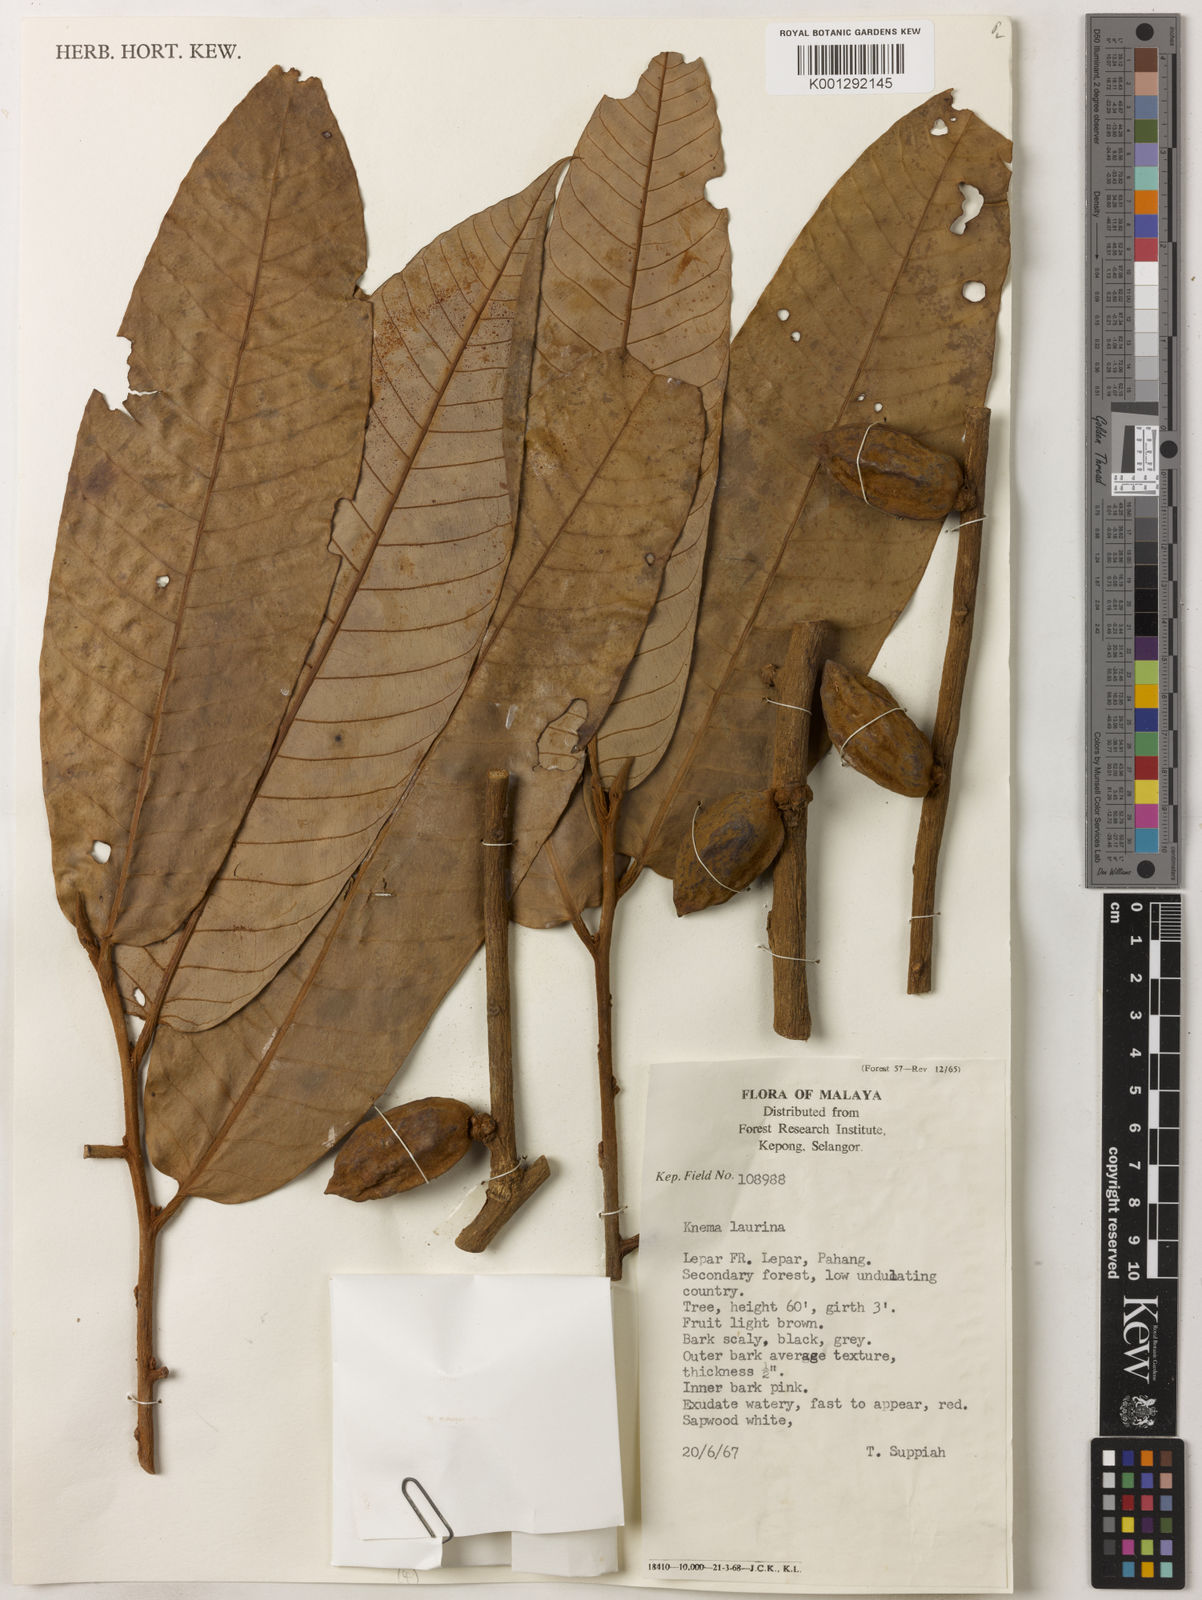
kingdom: Plantae
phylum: Tracheophyta
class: Magnoliopsida
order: Magnoliales
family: Myristicaceae
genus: Knema
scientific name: Knema laurina
